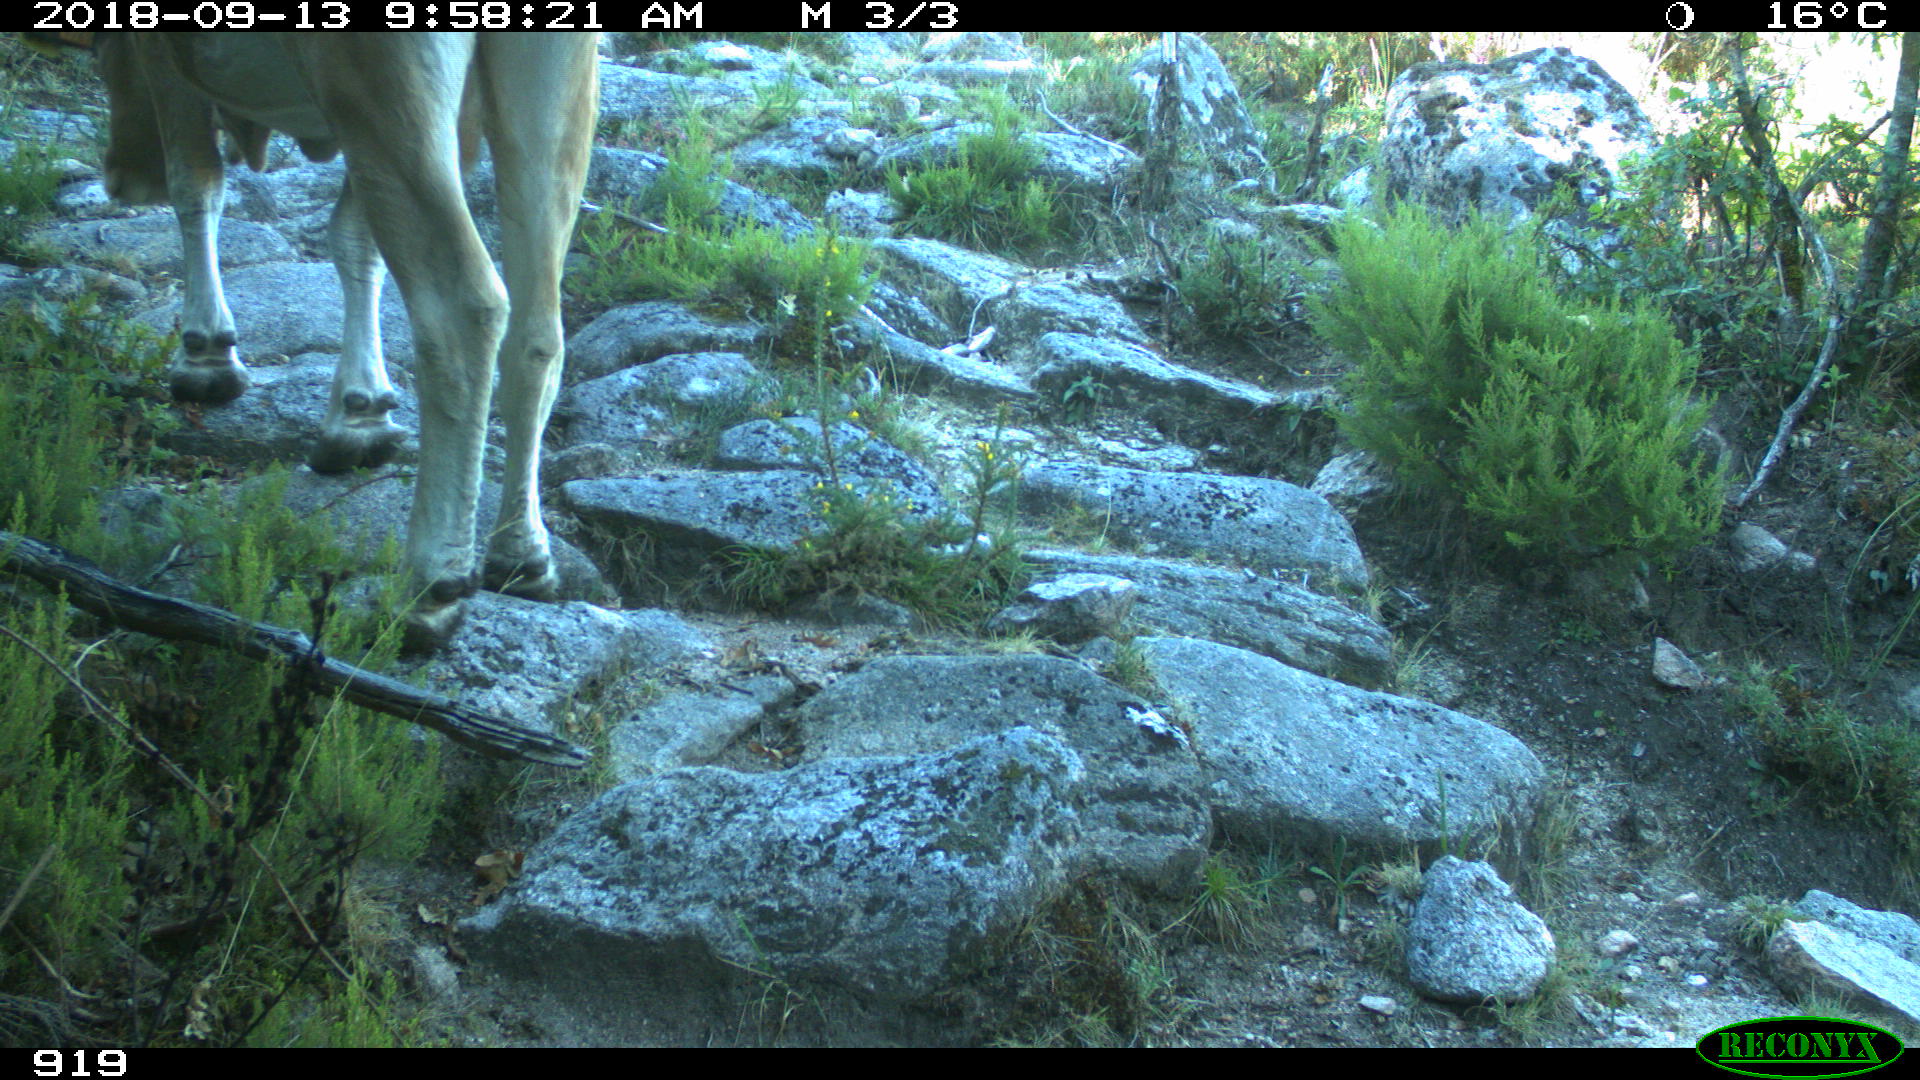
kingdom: Animalia
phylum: Chordata
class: Mammalia
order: Artiodactyla
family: Bovidae
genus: Bos
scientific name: Bos taurus
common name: Domesticated cattle
